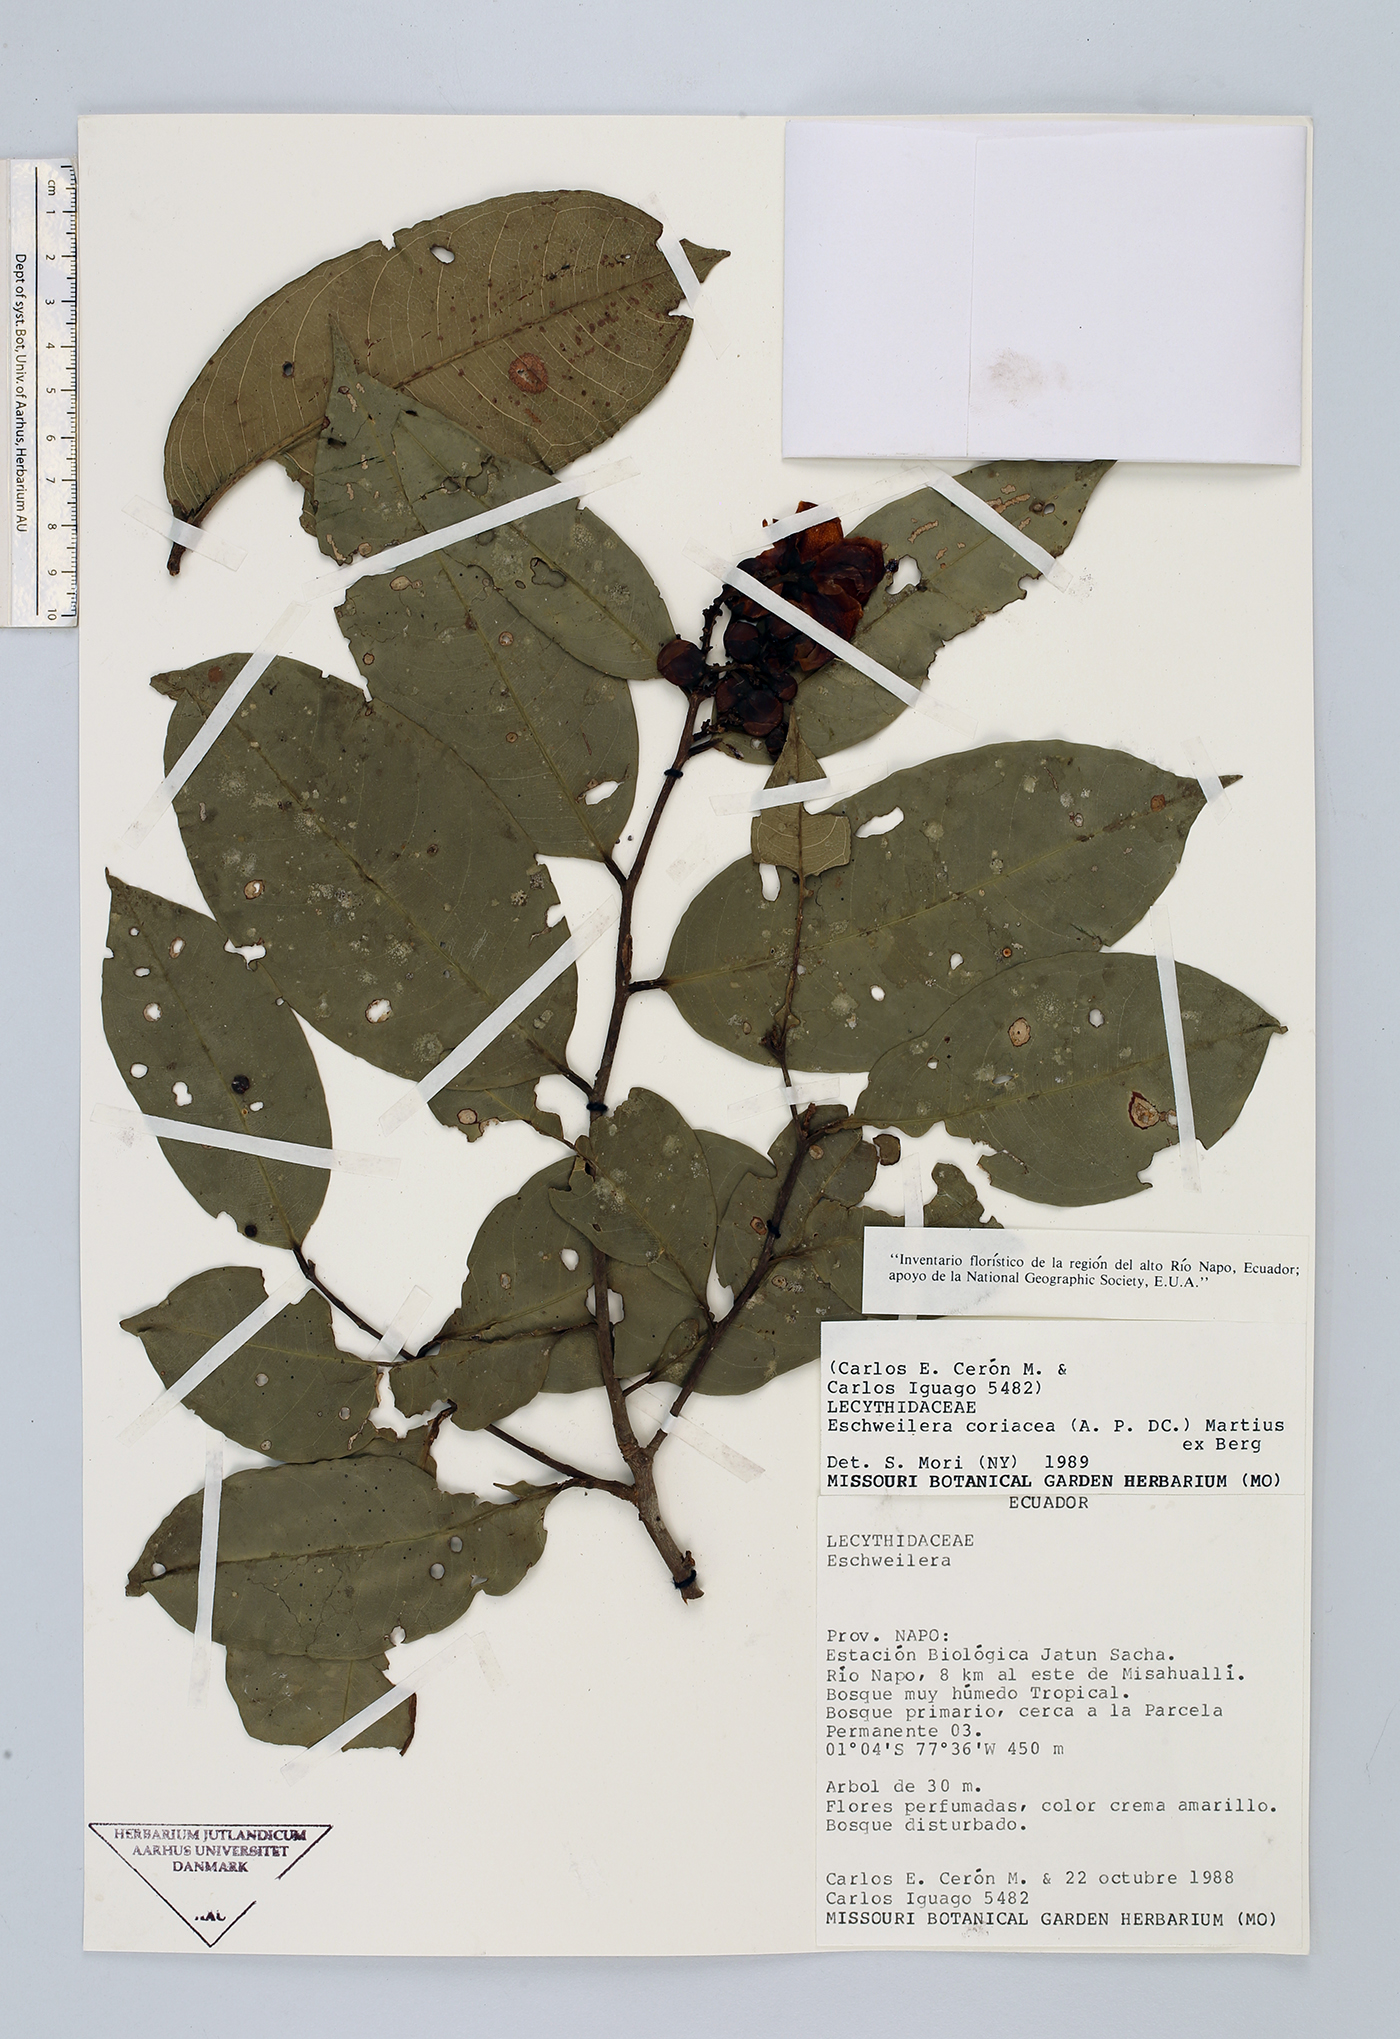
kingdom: Plantae
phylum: Tracheophyta
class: Magnoliopsida
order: Ericales
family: Lecythidaceae
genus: Eschweilera
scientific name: Eschweilera coriacea
